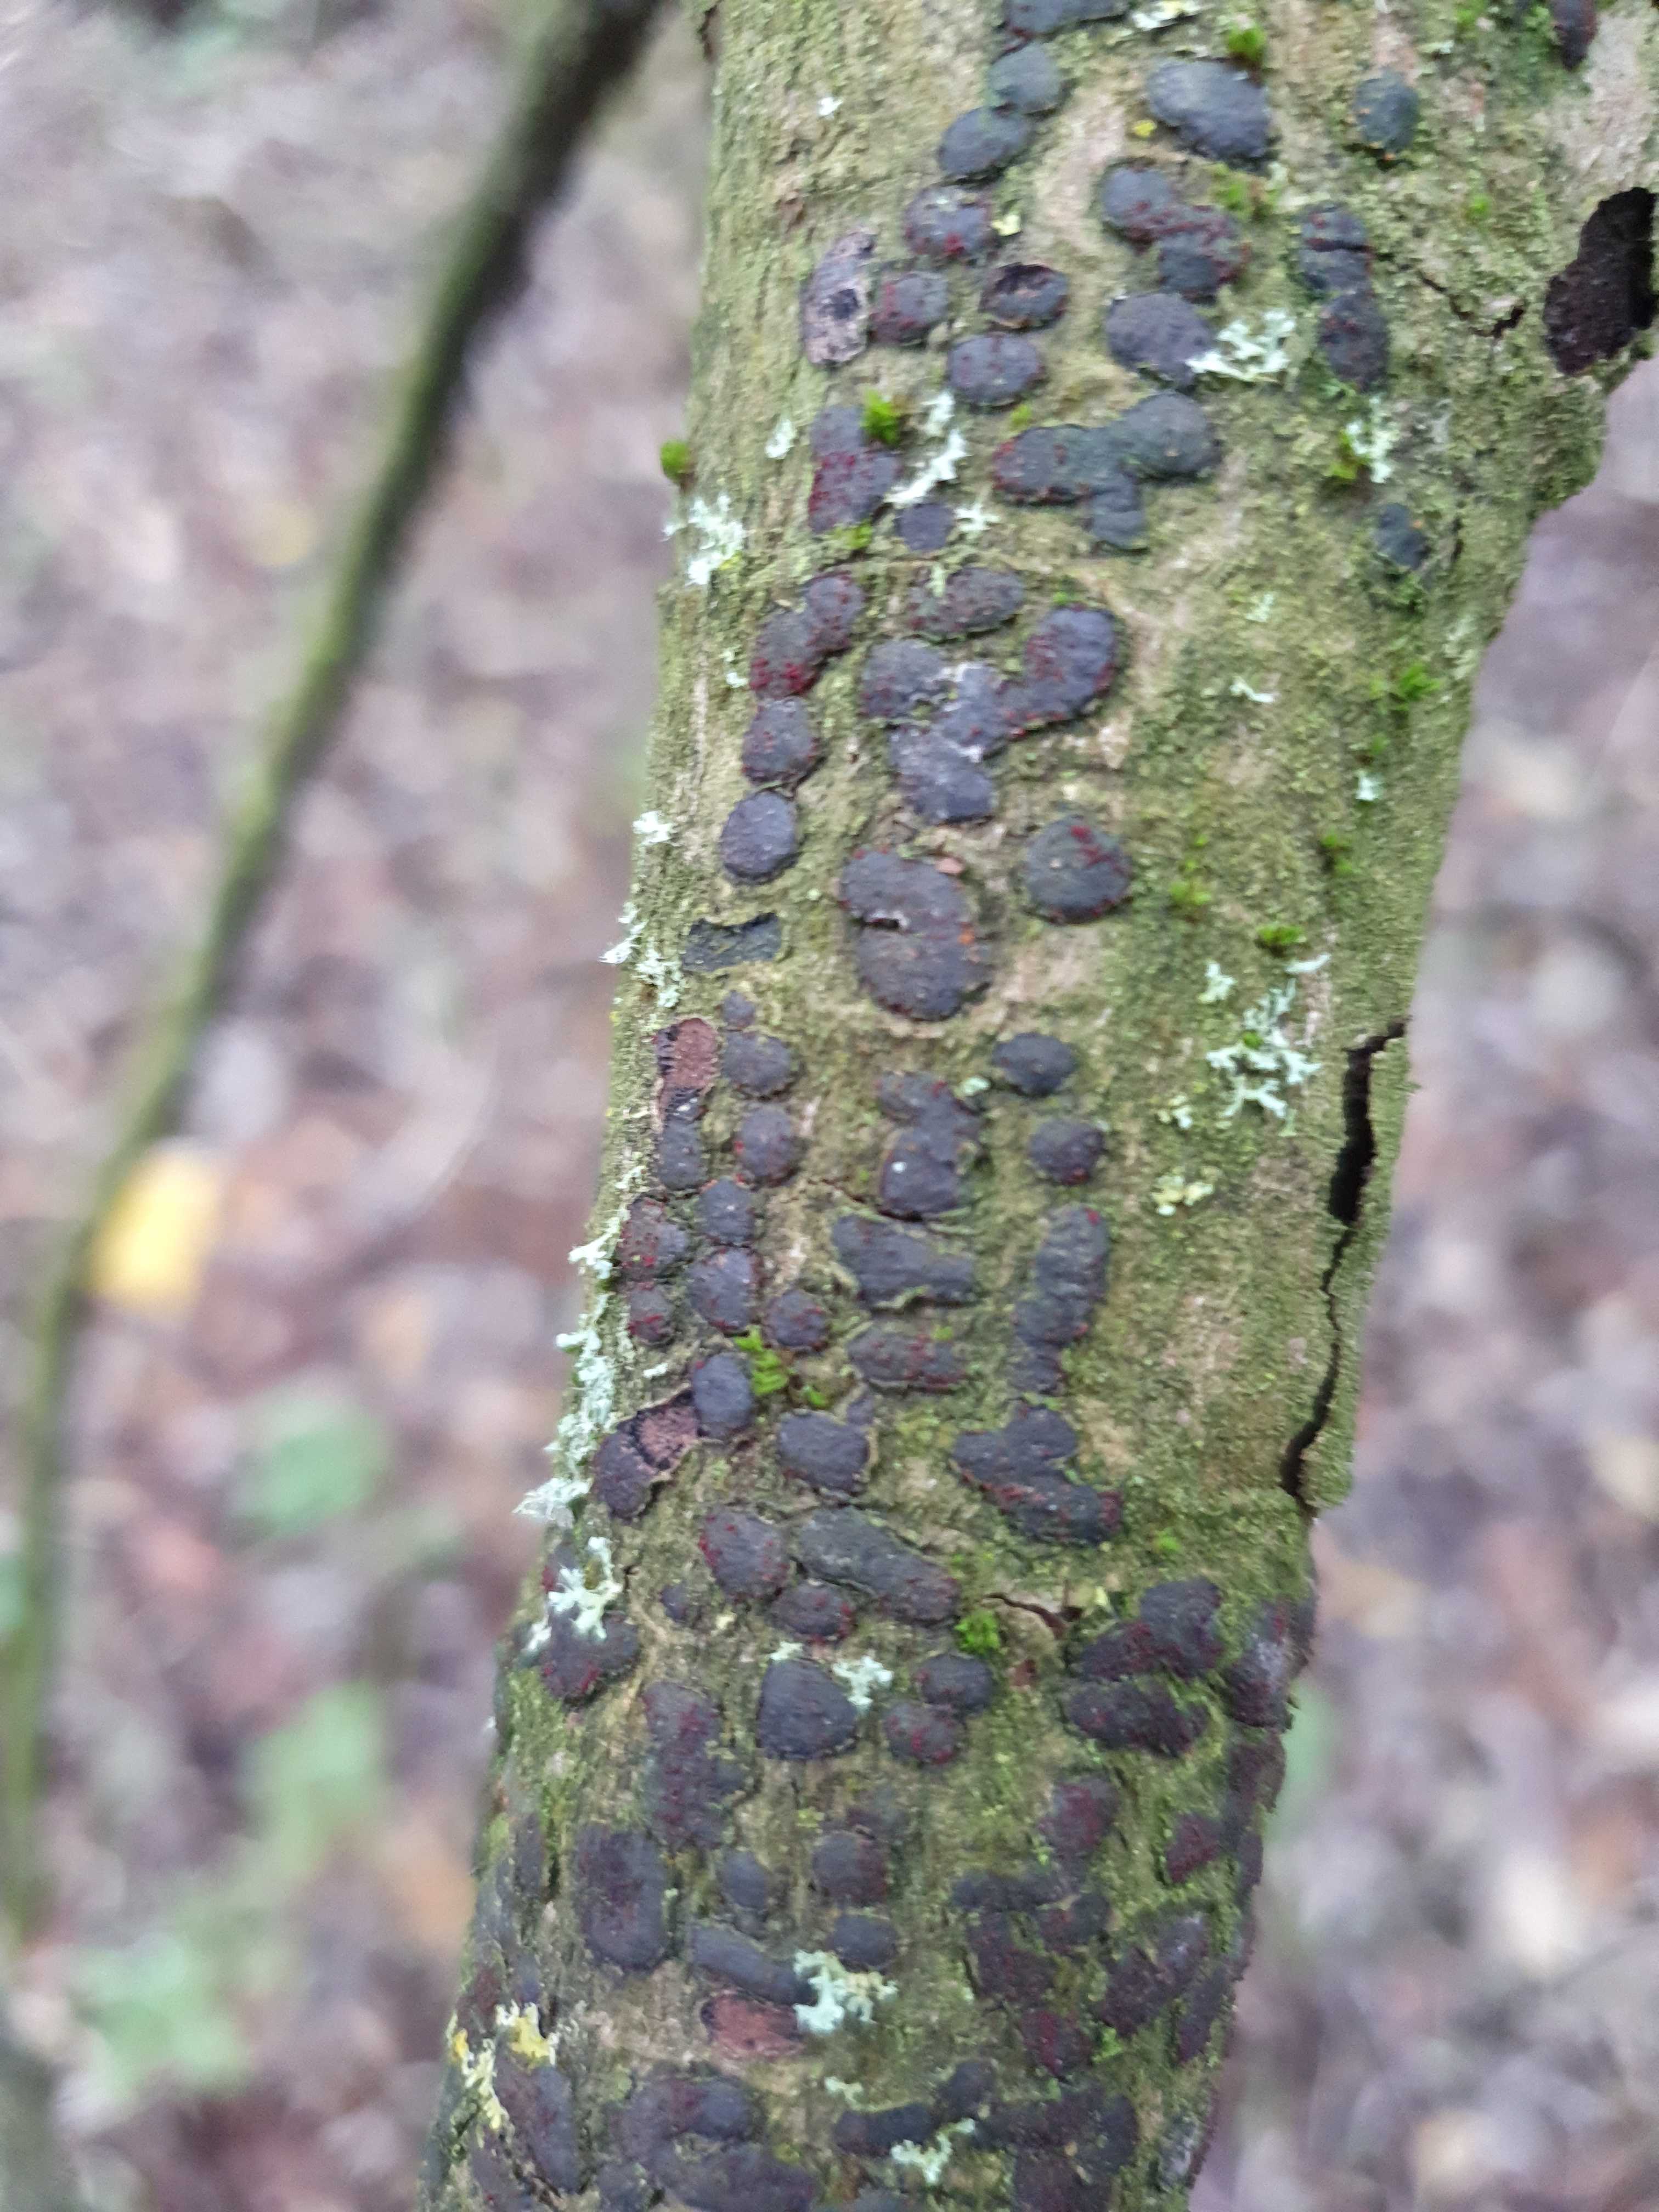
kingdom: Fungi
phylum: Ascomycota
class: Sordariomycetes
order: Xylariales
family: Diatrypaceae
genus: Diatrype
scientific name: Diatrype bullata
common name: pile-kulskorpe
